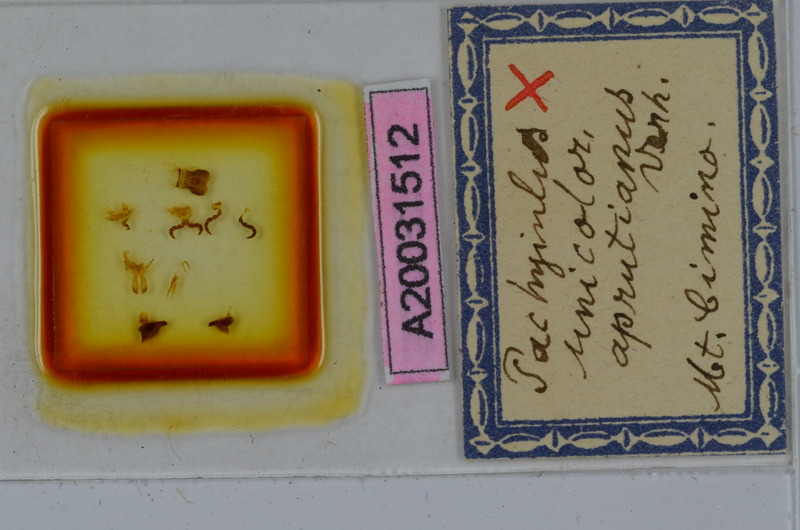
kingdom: Animalia
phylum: Arthropoda
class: Diplopoda
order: Julida
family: Julidae
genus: Pachyiulus
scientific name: Pachyiulus unicolor
